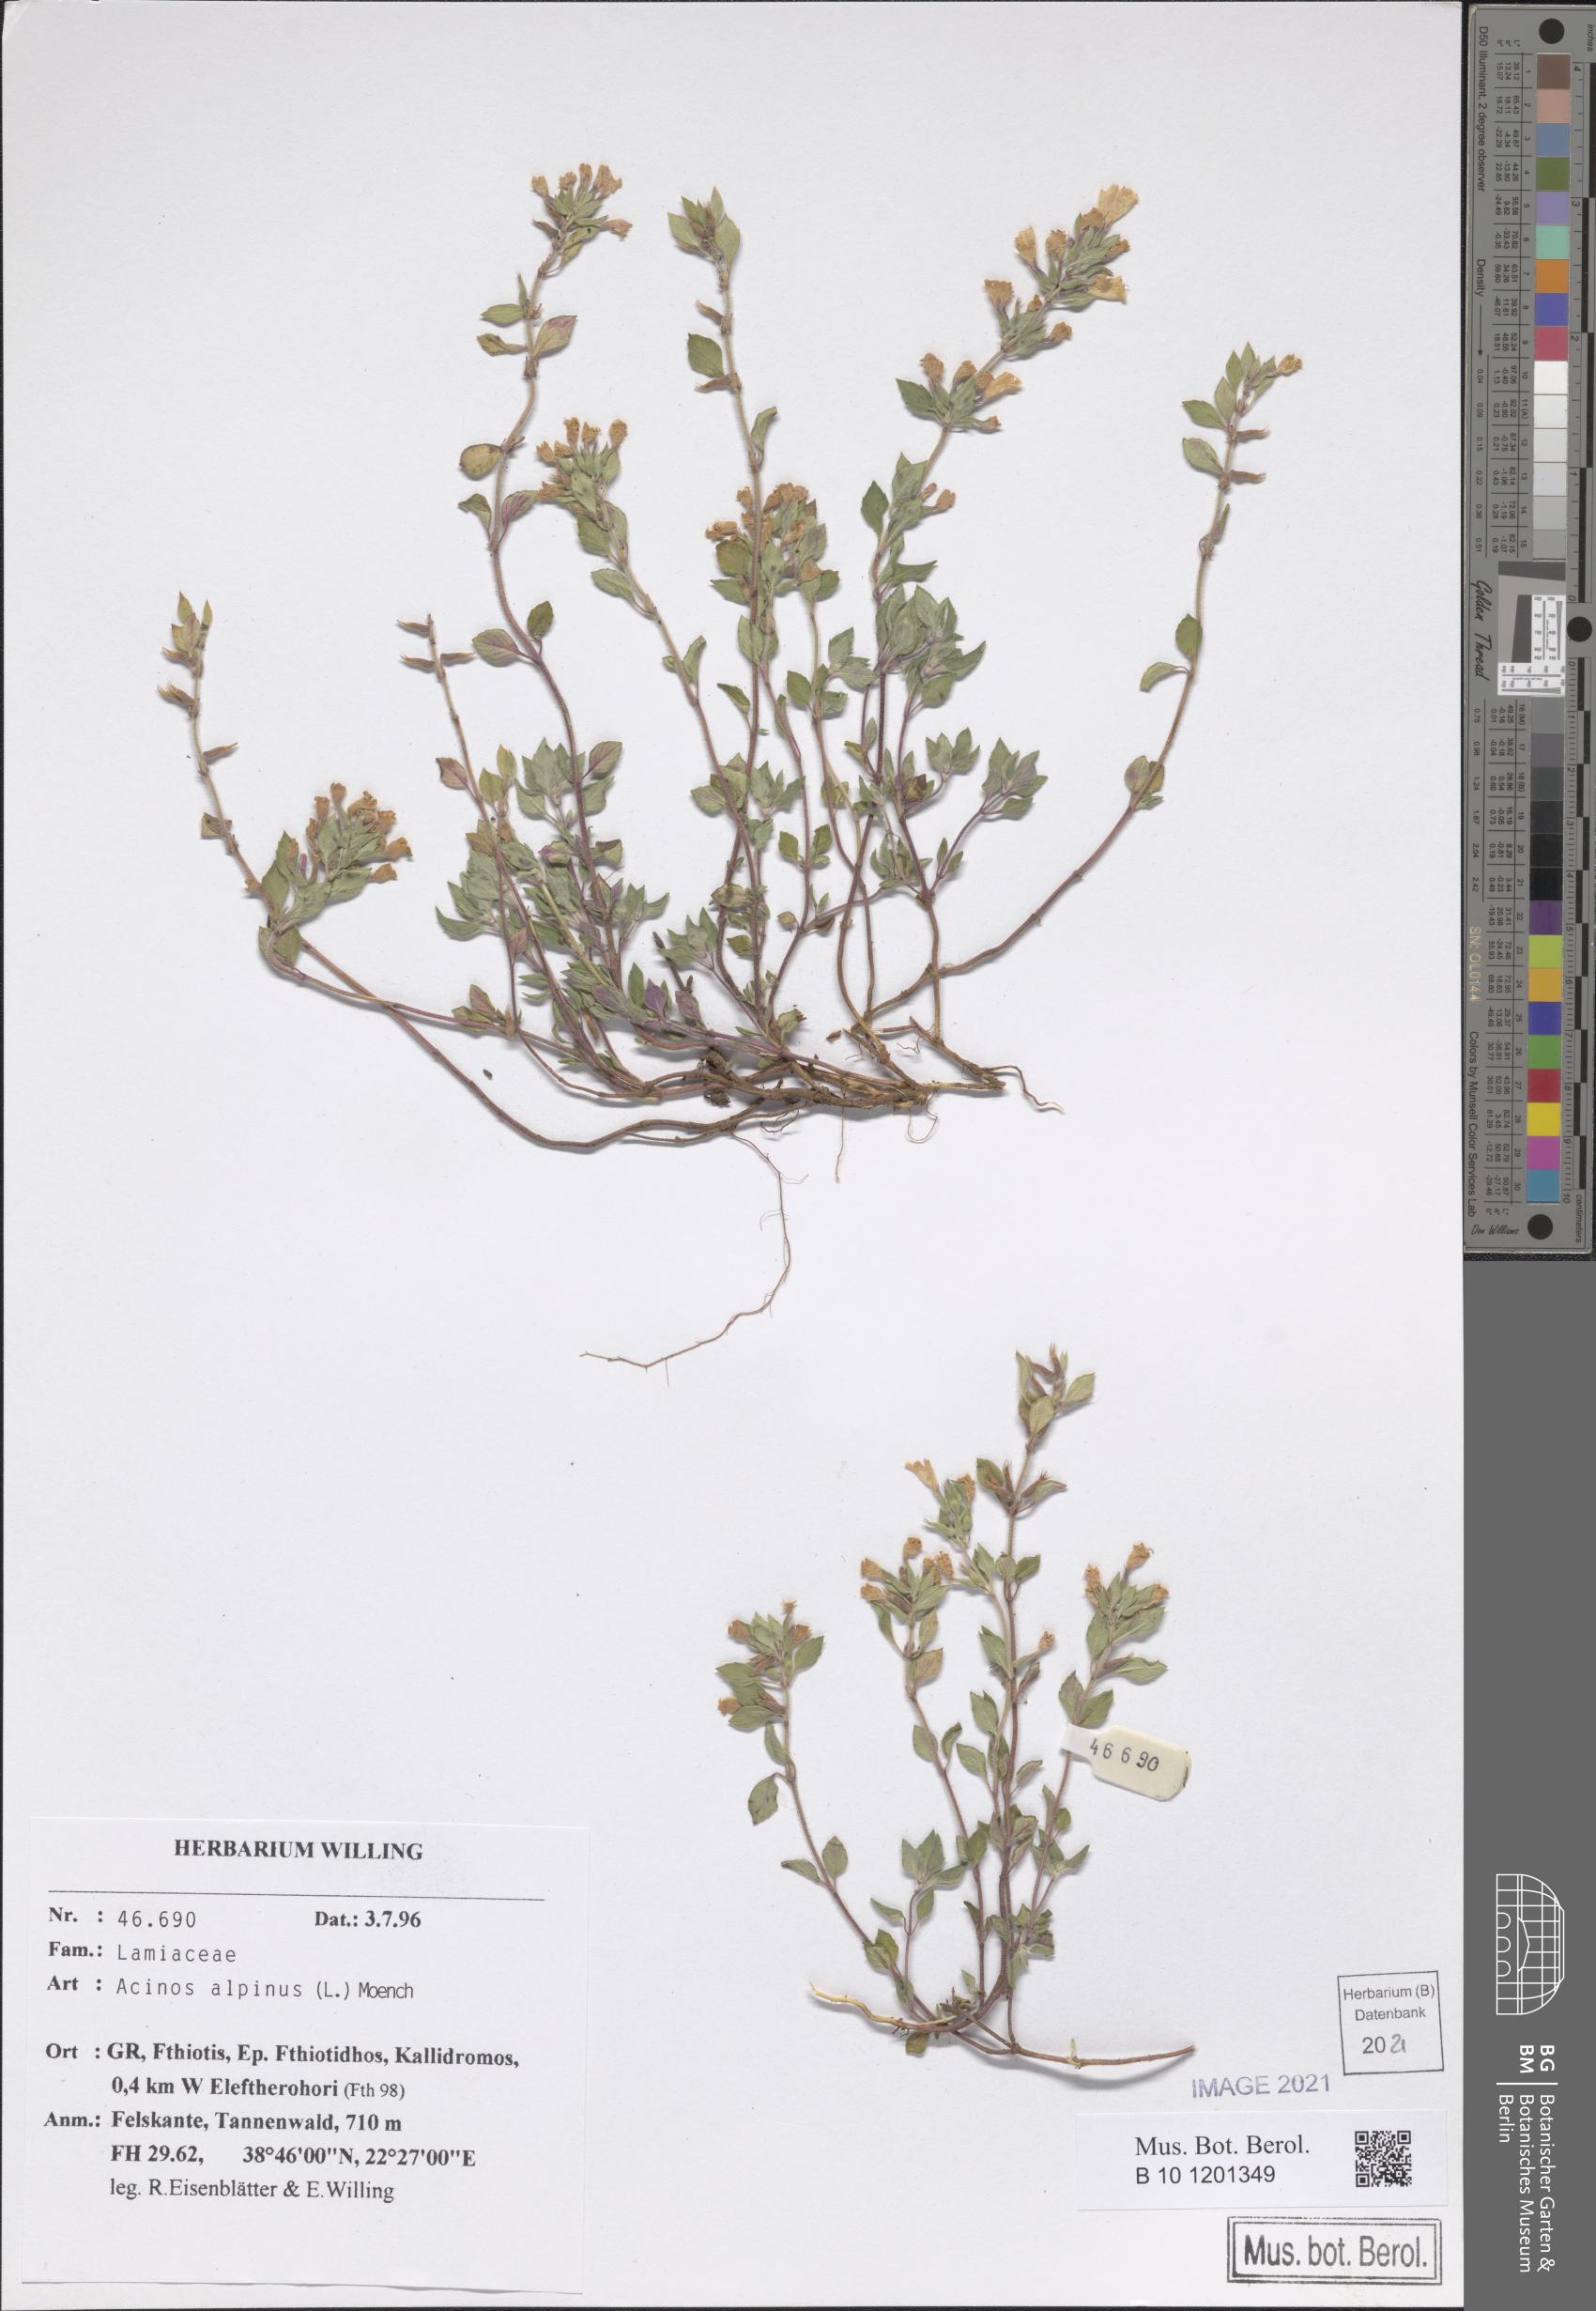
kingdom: Plantae
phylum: Tracheophyta
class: Magnoliopsida
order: Lamiales
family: Lamiaceae
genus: Clinopodium
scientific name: Clinopodium alpinum
